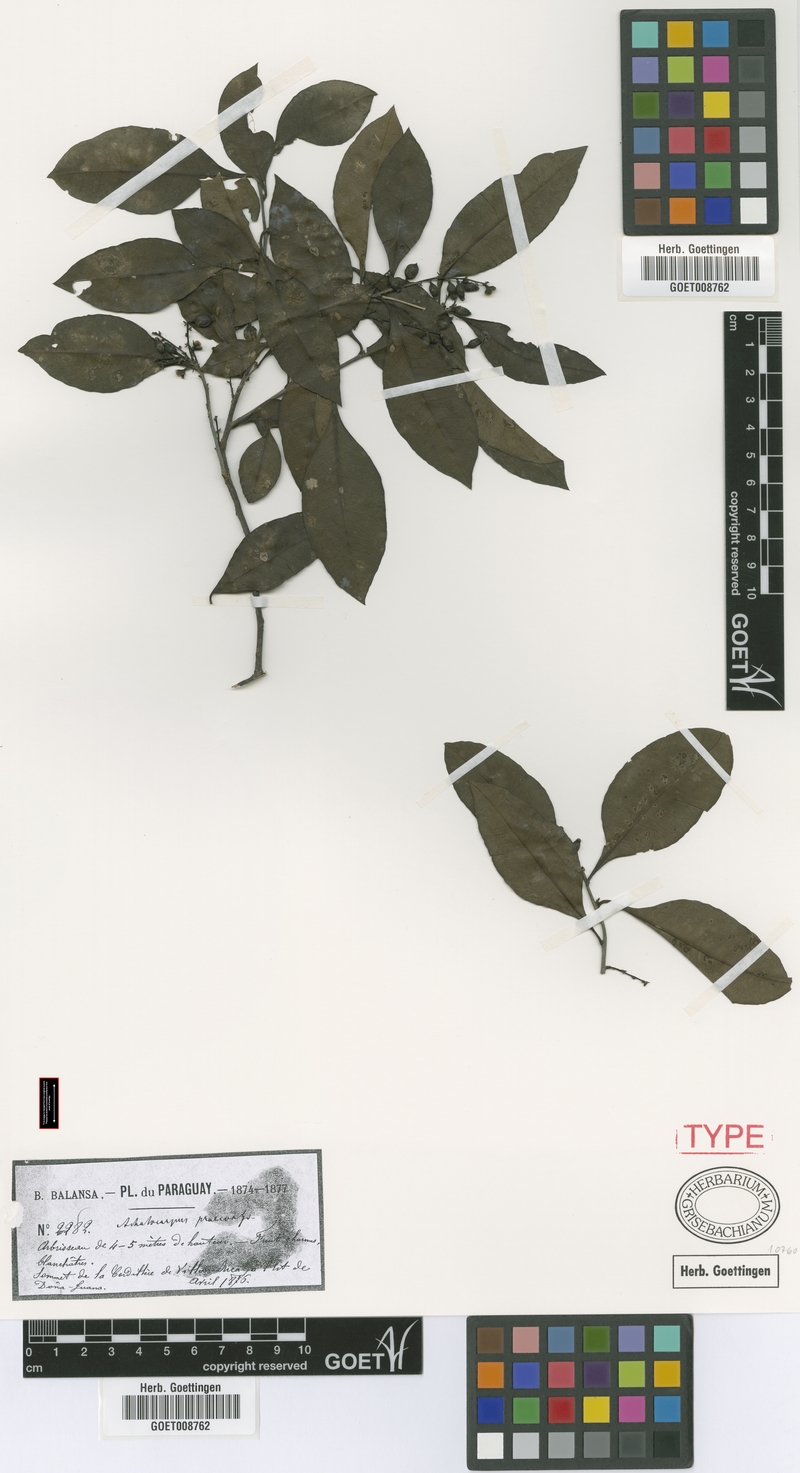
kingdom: Plantae
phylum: Tracheophyta
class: Magnoliopsida
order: Caryophyllales
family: Achatocarpaceae
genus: Achatocarpus
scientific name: Achatocarpus balansae
